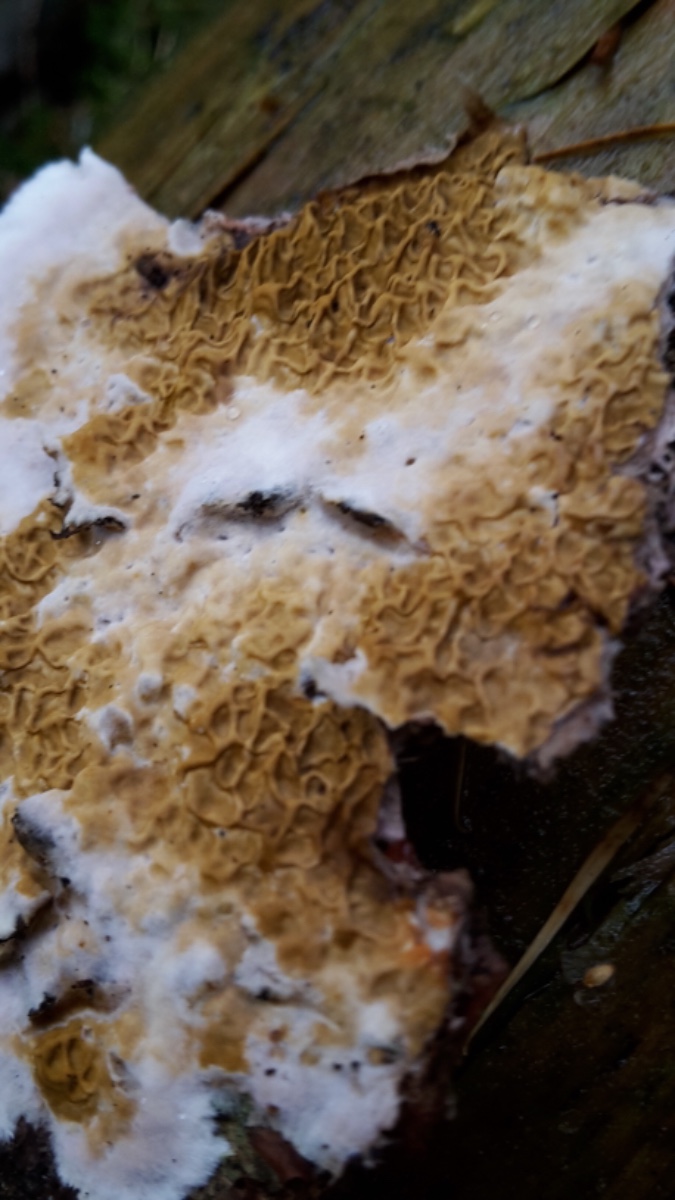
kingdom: Fungi
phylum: Basidiomycota
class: Agaricomycetes
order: Boletales
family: Serpulaceae
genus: Serpula
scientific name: Serpula himantioides
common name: tyndkødet hussvamp
